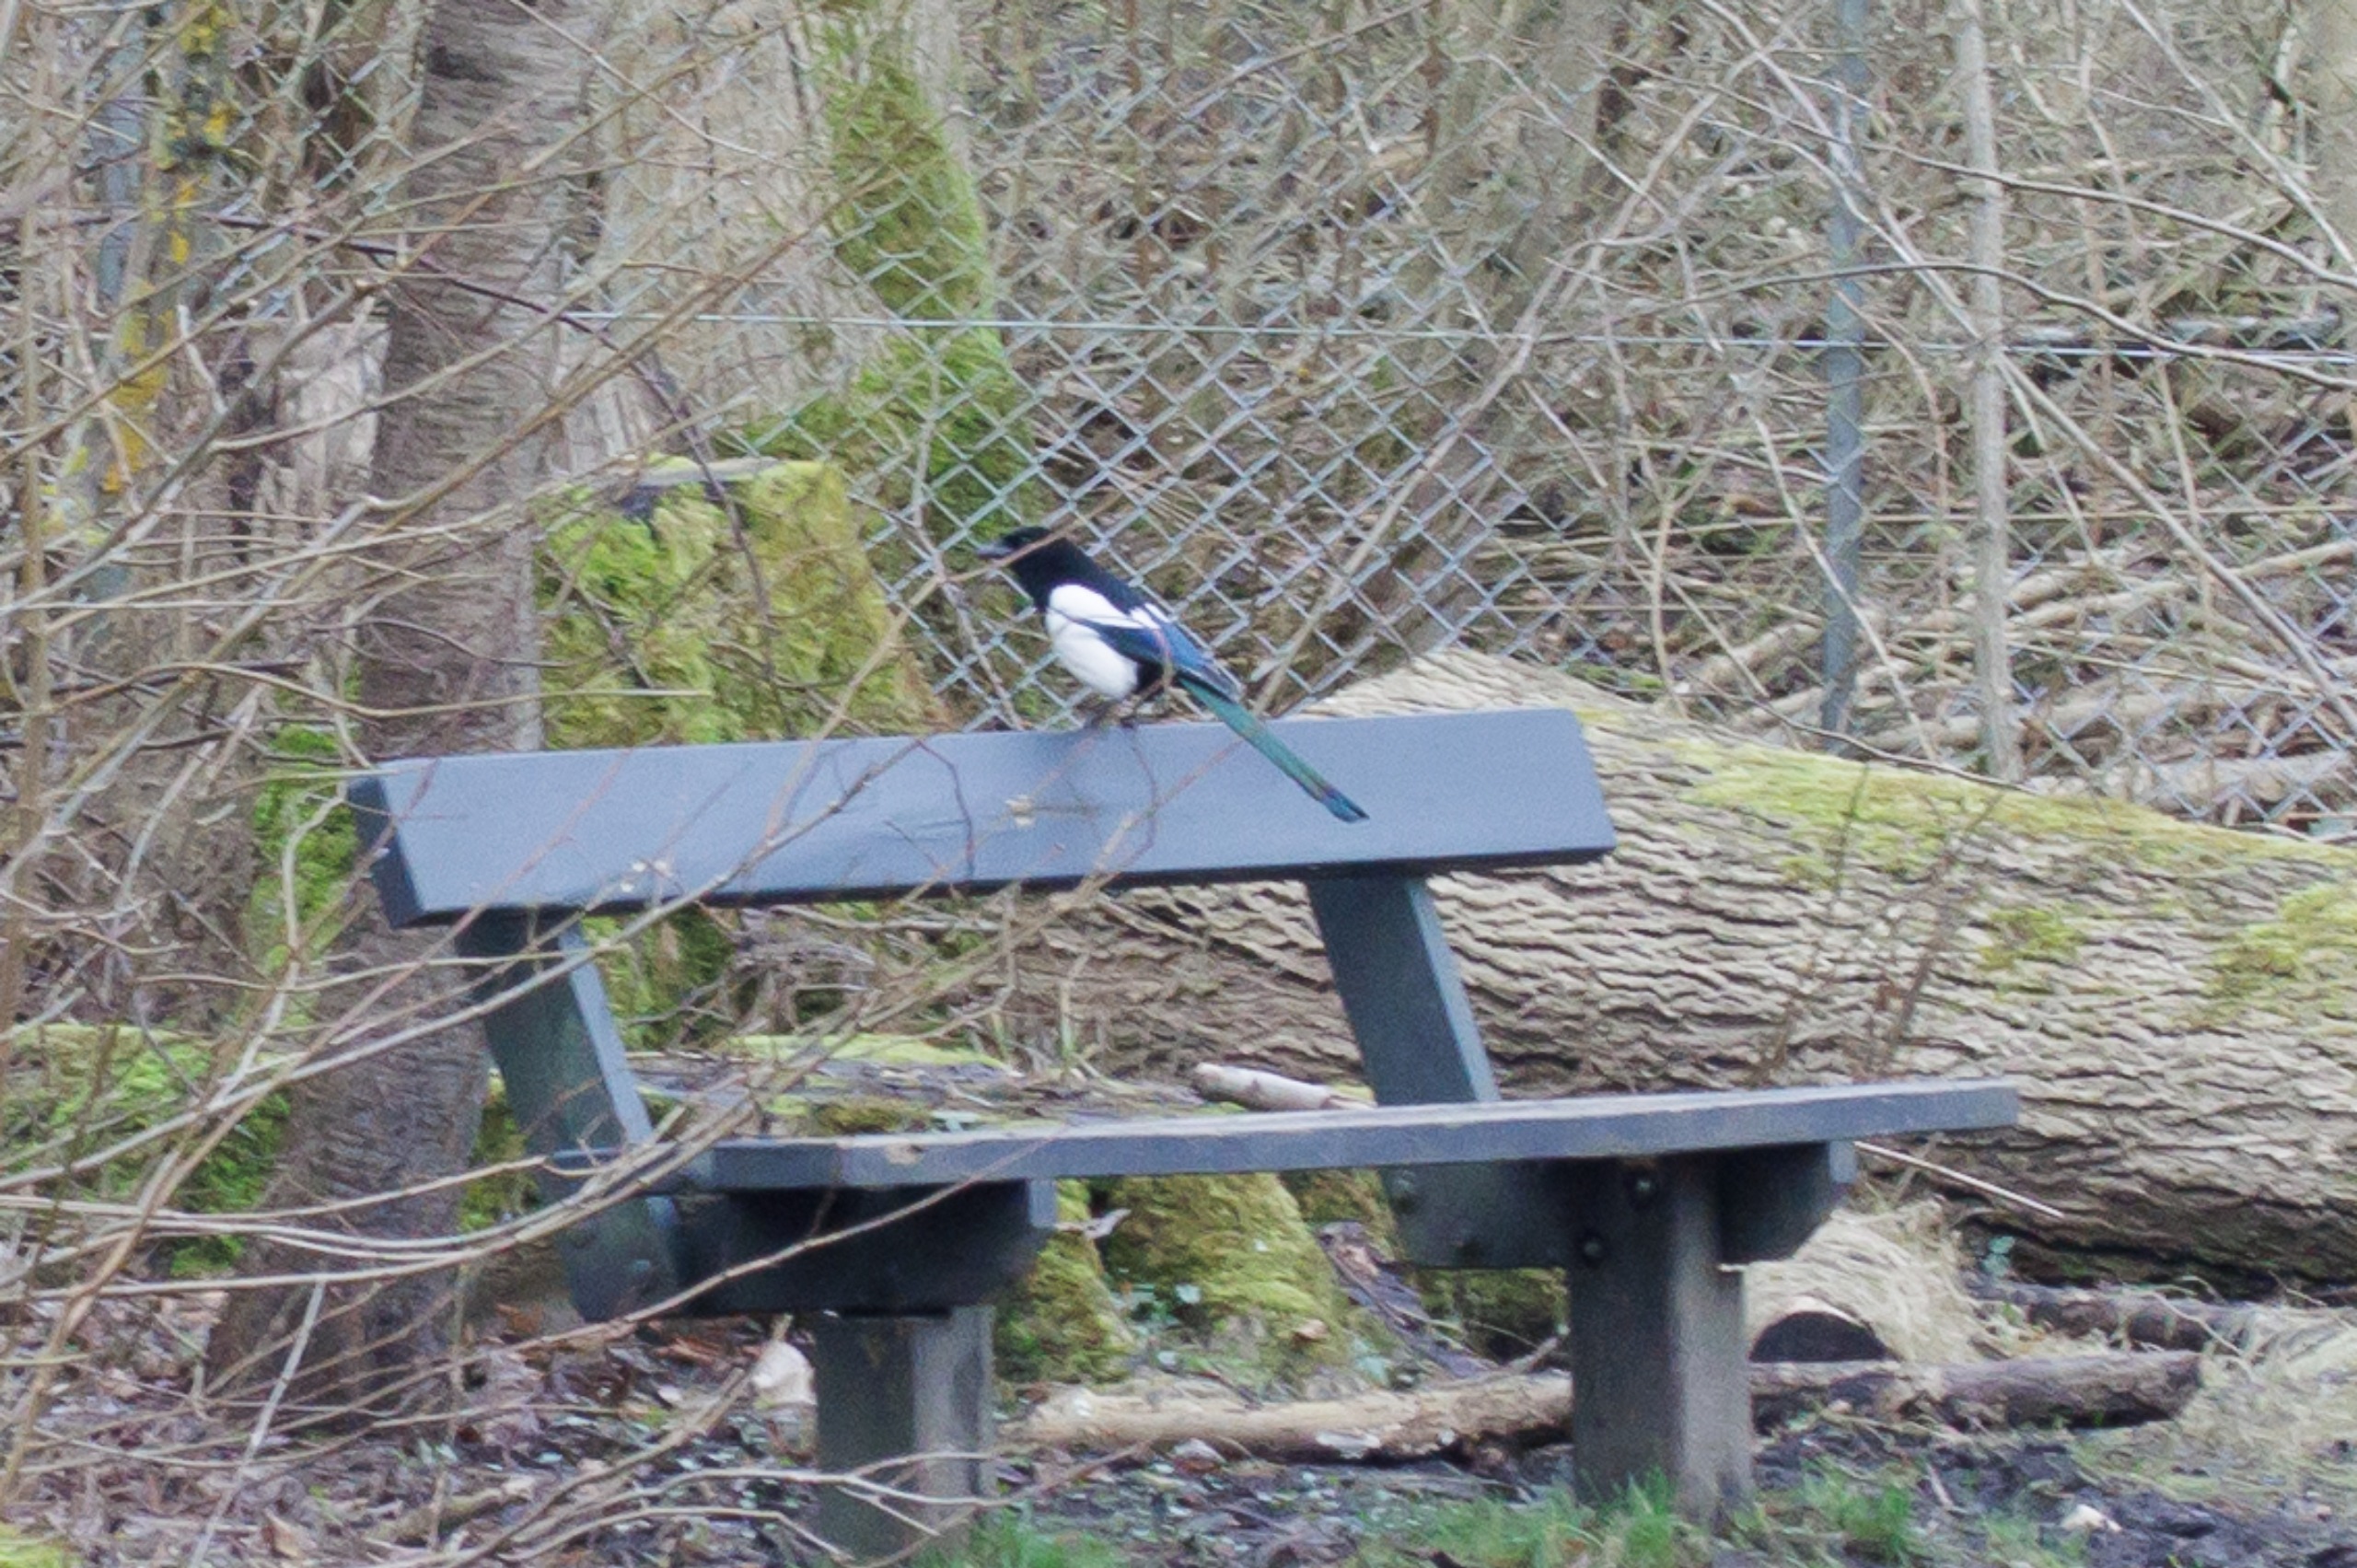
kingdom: Animalia
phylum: Chordata
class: Aves
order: Passeriformes
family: Corvidae
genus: Pica
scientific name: Pica pica
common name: Husskade
